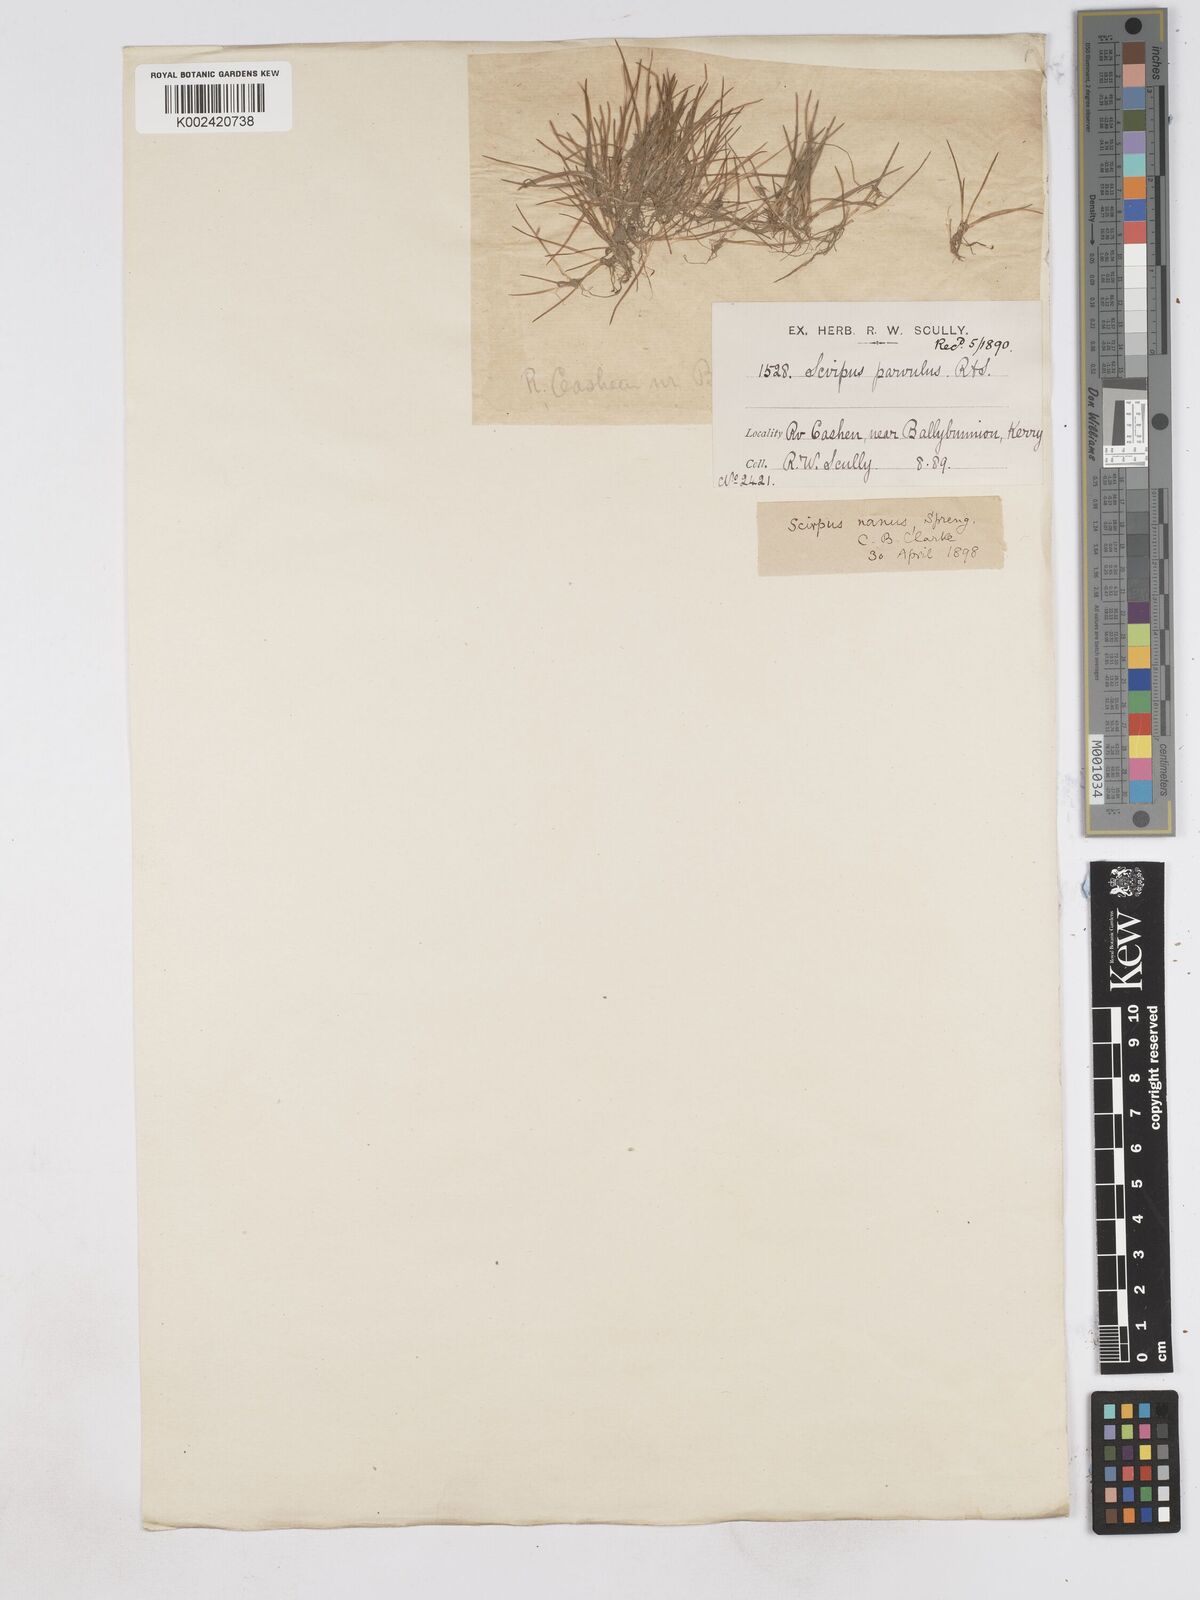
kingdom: Plantae
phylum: Tracheophyta
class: Liliopsida
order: Poales
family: Cyperaceae
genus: Eleocharis
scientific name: Eleocharis parvula
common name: Dwarf spike-rush
